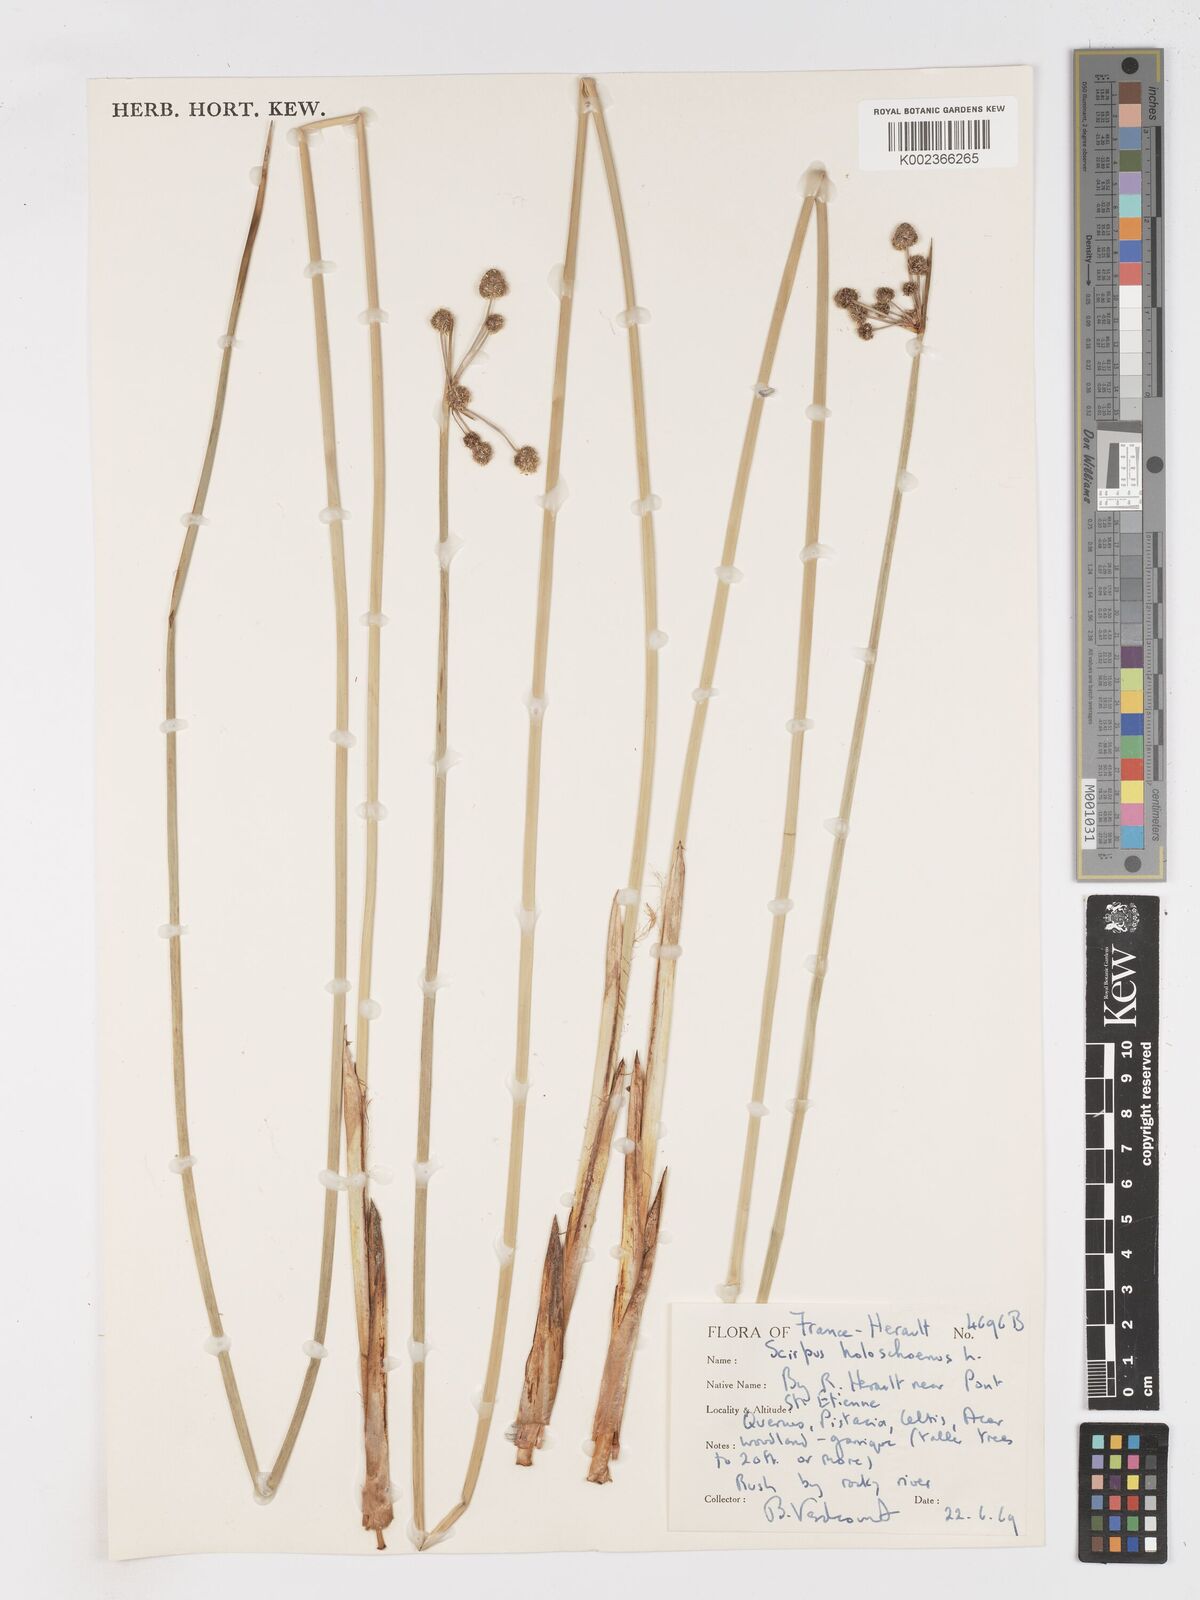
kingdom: Plantae
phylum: Tracheophyta
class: Liliopsida
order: Poales
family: Cyperaceae
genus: Scirpoides
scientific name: Scirpoides holoschoenus
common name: Round-headed club-rush
